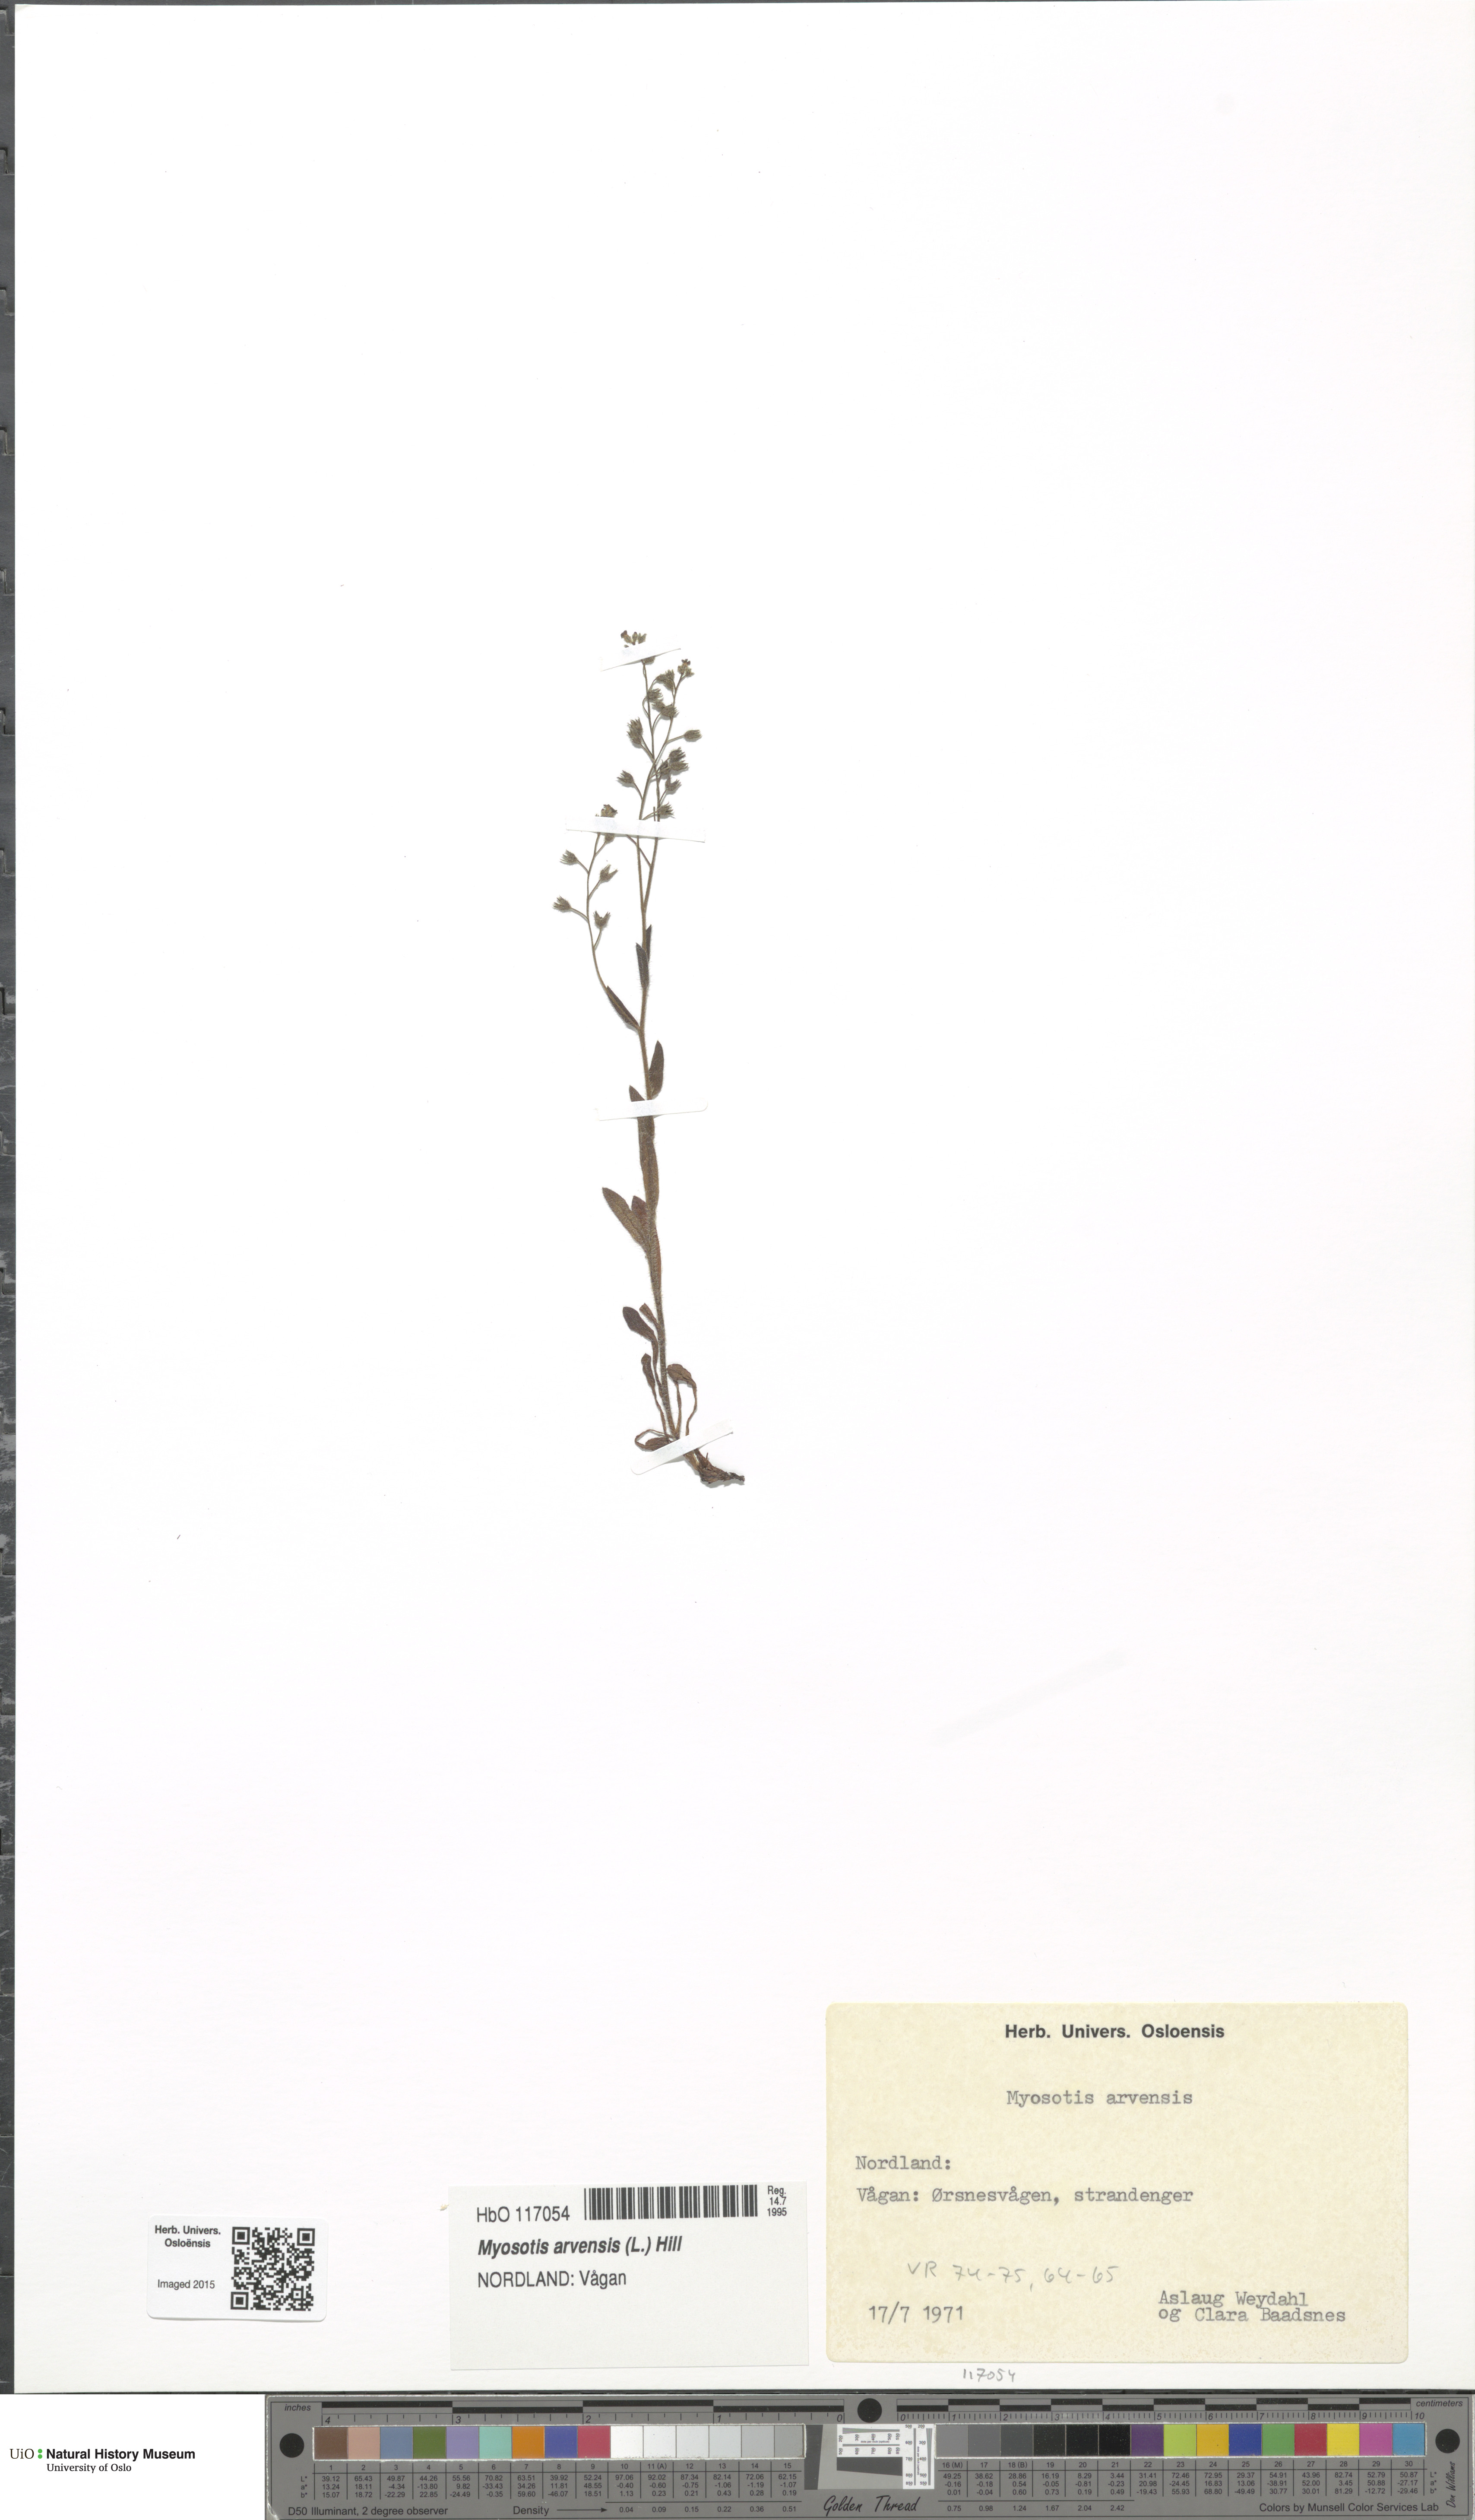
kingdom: Plantae
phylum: Tracheophyta
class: Magnoliopsida
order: Boraginales
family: Boraginaceae
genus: Myosotis
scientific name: Myosotis arvensis
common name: Field forget-me-not
